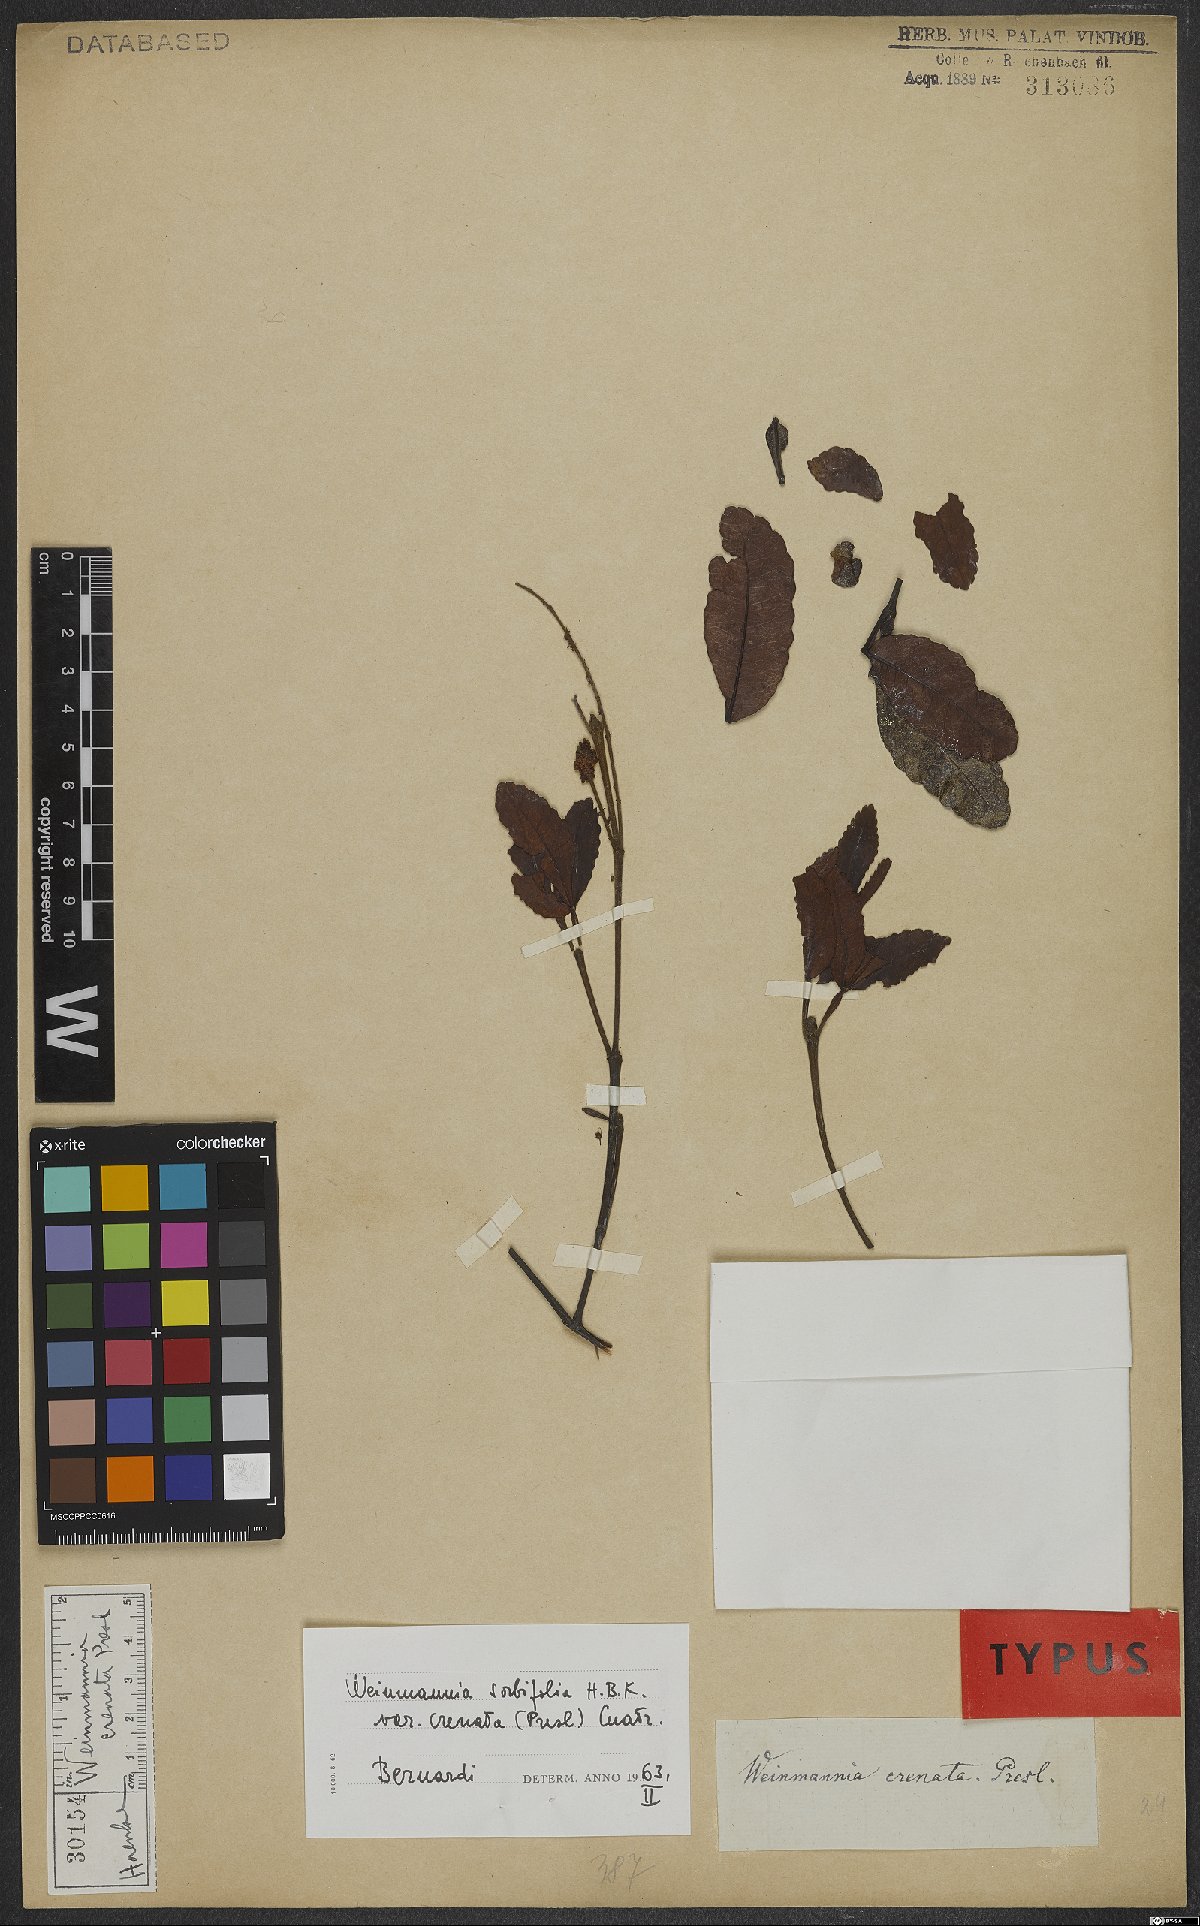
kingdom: Plantae
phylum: Tracheophyta
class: Magnoliopsida
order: Oxalidales
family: Cunoniaceae
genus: Weinmannia
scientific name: Weinmannia spruceana
